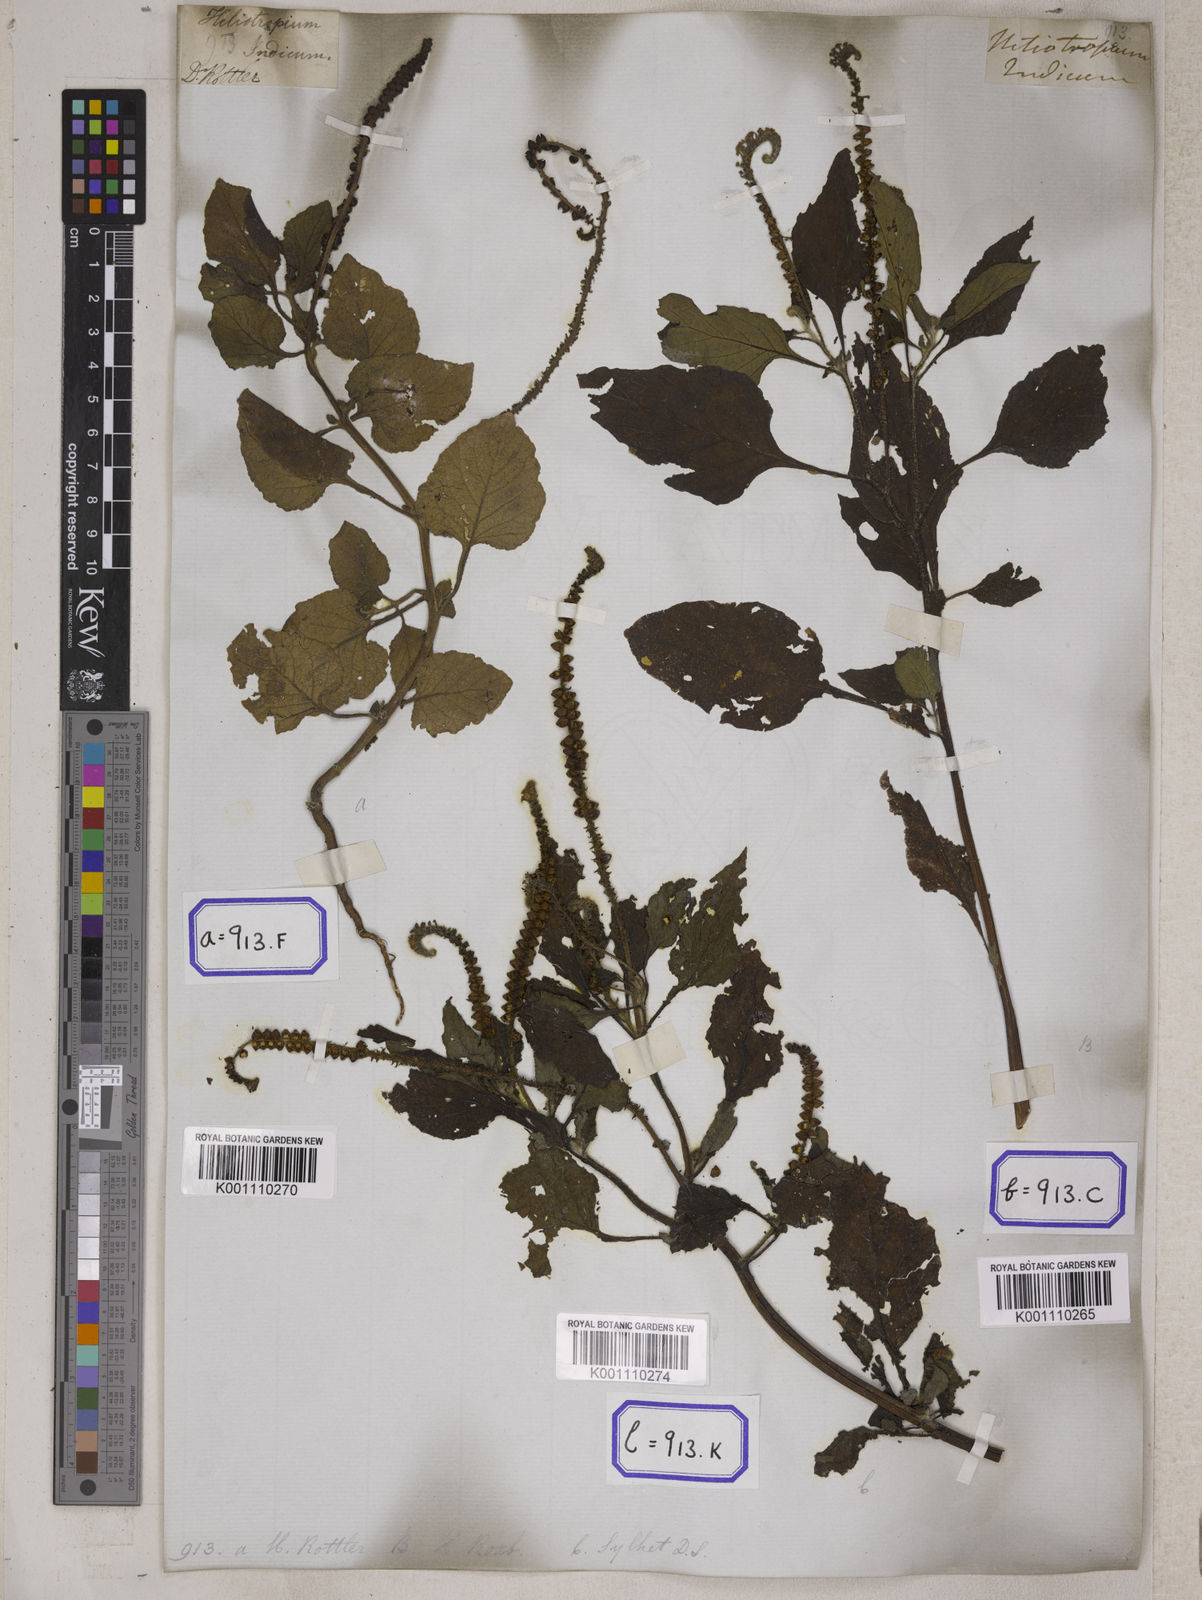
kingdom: Plantae
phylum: Tracheophyta
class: Magnoliopsida
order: Boraginales
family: Heliotropiaceae
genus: Heliotropium
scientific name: Heliotropium indicum
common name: Indian heliotrope
